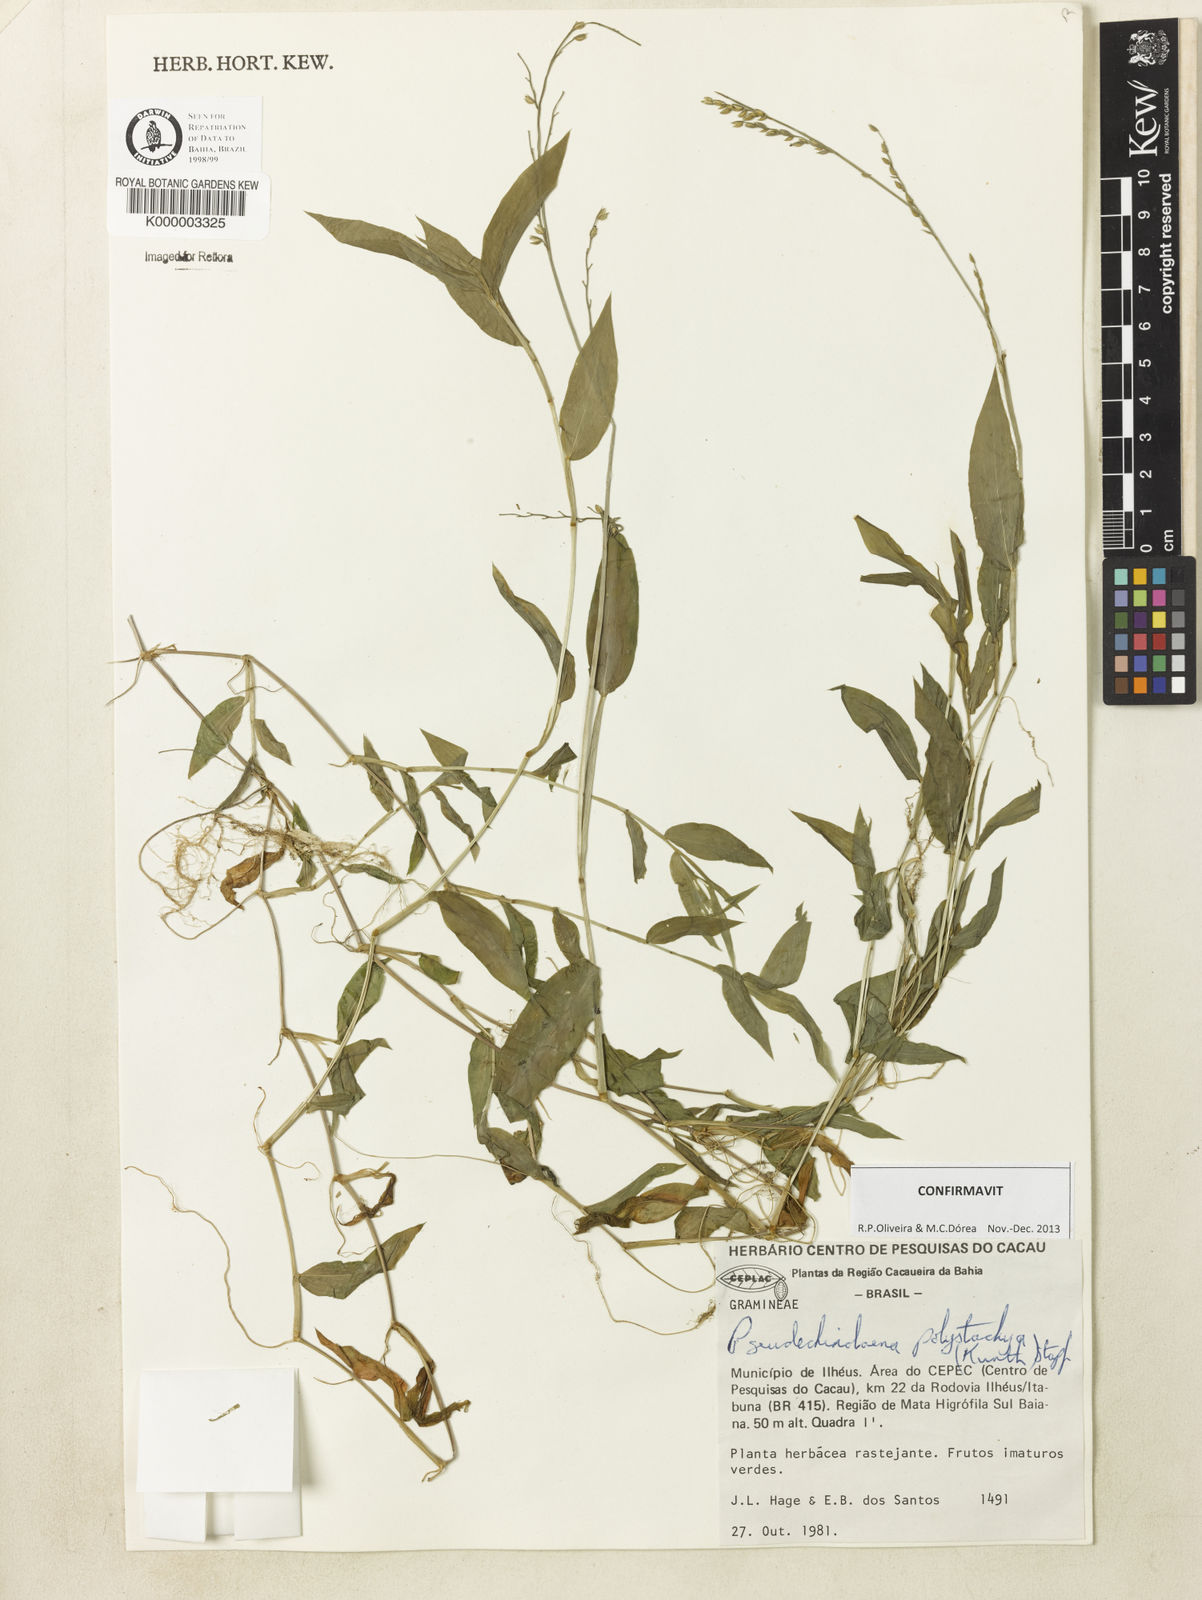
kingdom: Plantae
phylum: Tracheophyta
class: Liliopsida
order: Poales
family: Poaceae
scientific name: Poaceae
